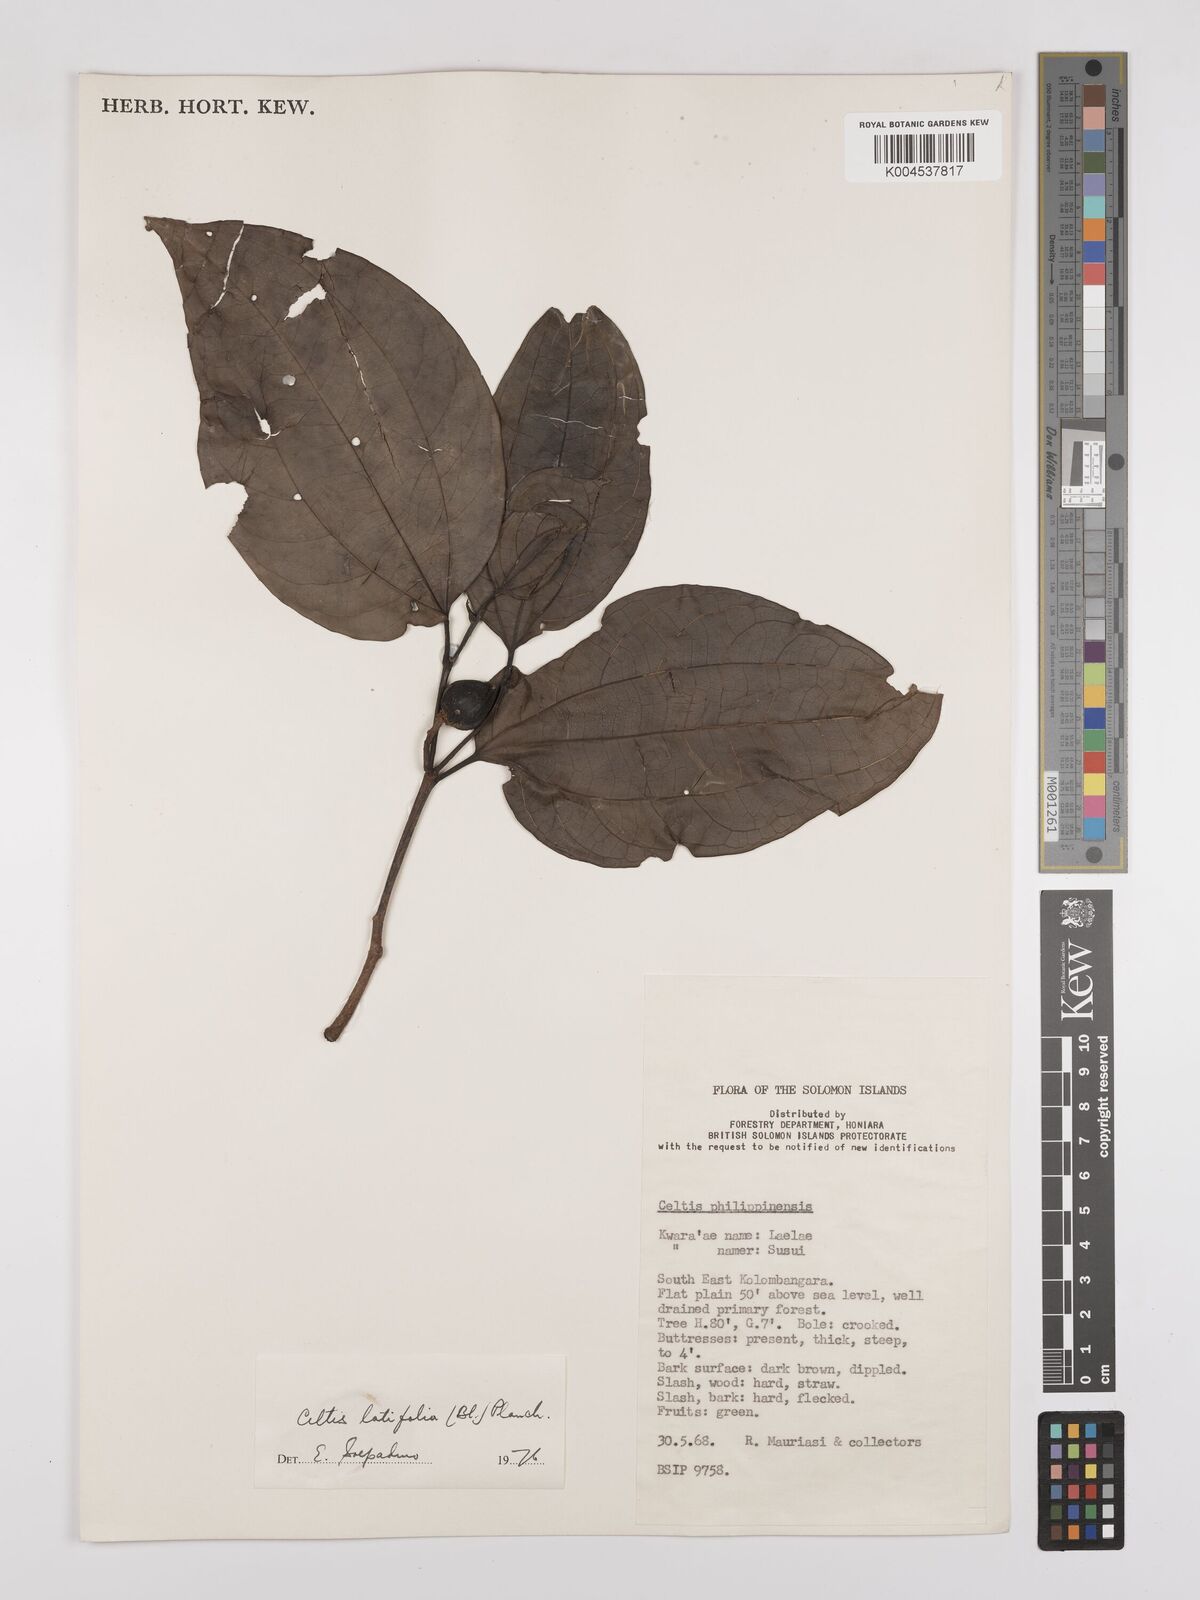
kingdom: Plantae
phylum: Tracheophyta
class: Magnoliopsida
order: Rosales
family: Cannabaceae
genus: Celtis
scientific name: Celtis latifolia
